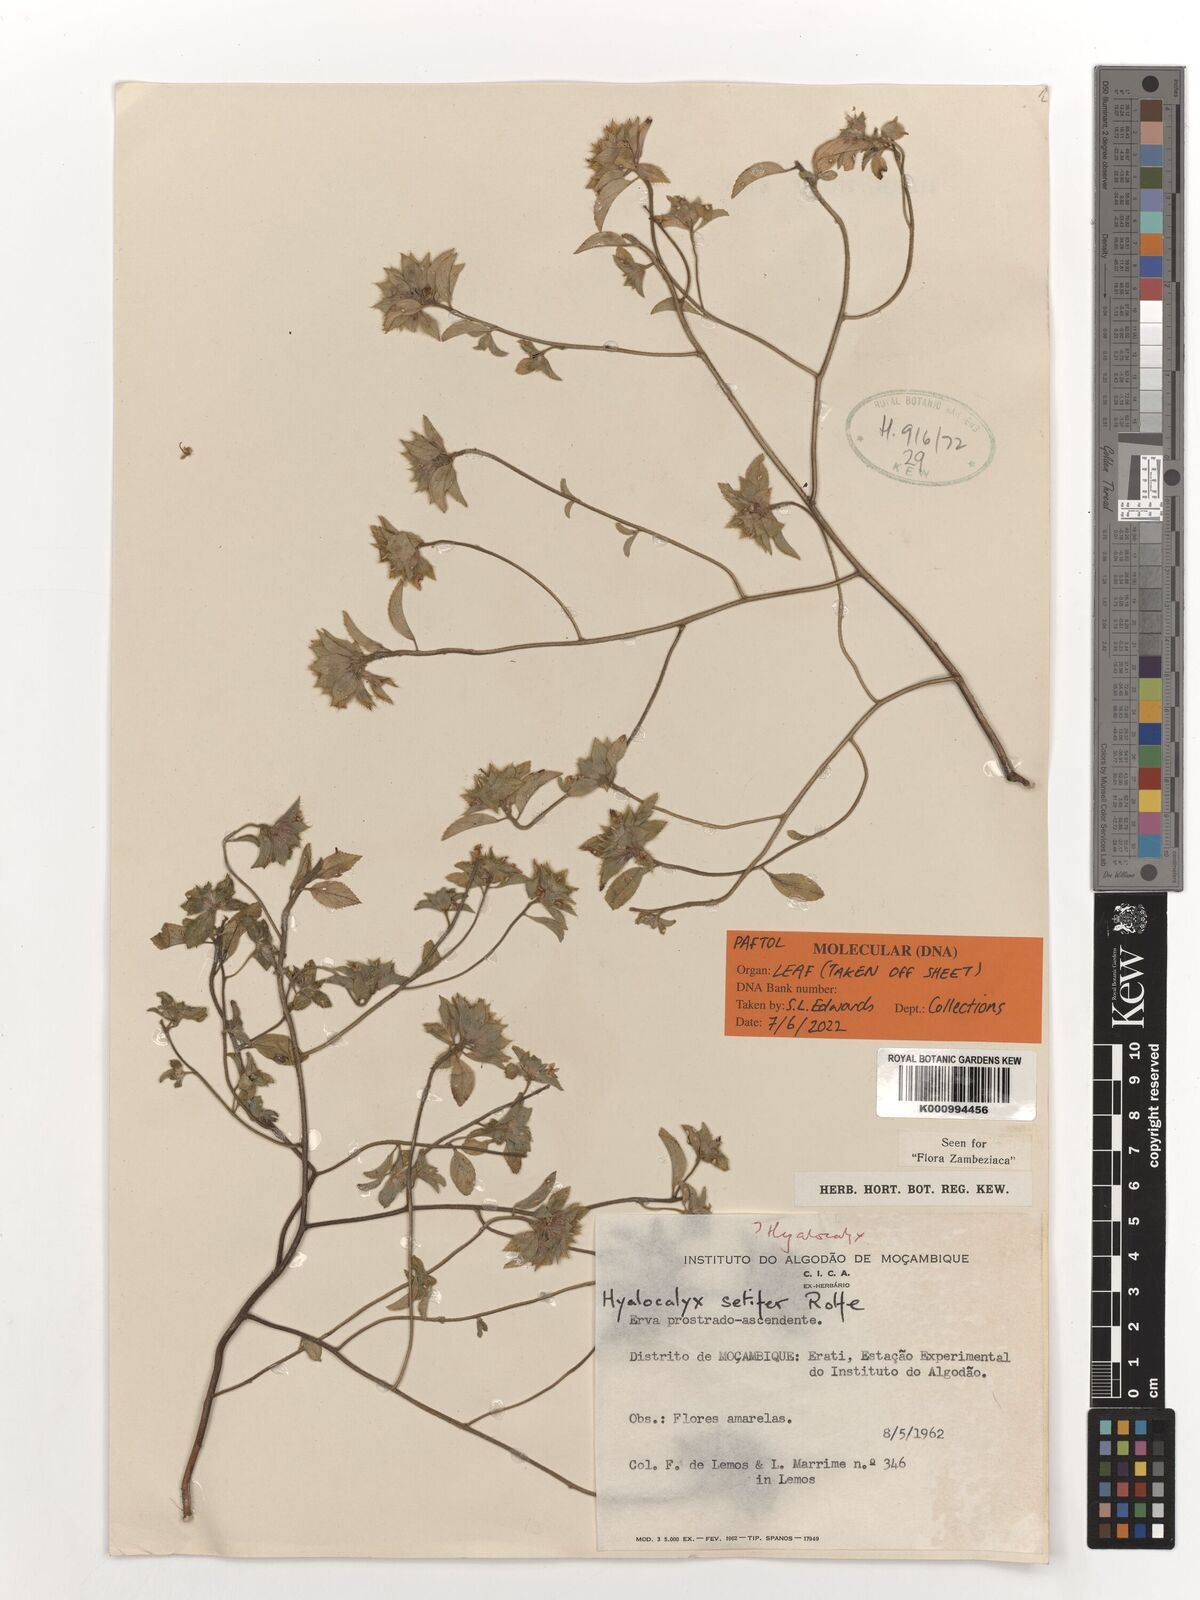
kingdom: Plantae
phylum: Tracheophyta
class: Magnoliopsida
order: Malpighiales
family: Turneraceae
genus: Hyalocalyx
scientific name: Hyalocalyx setiferus
